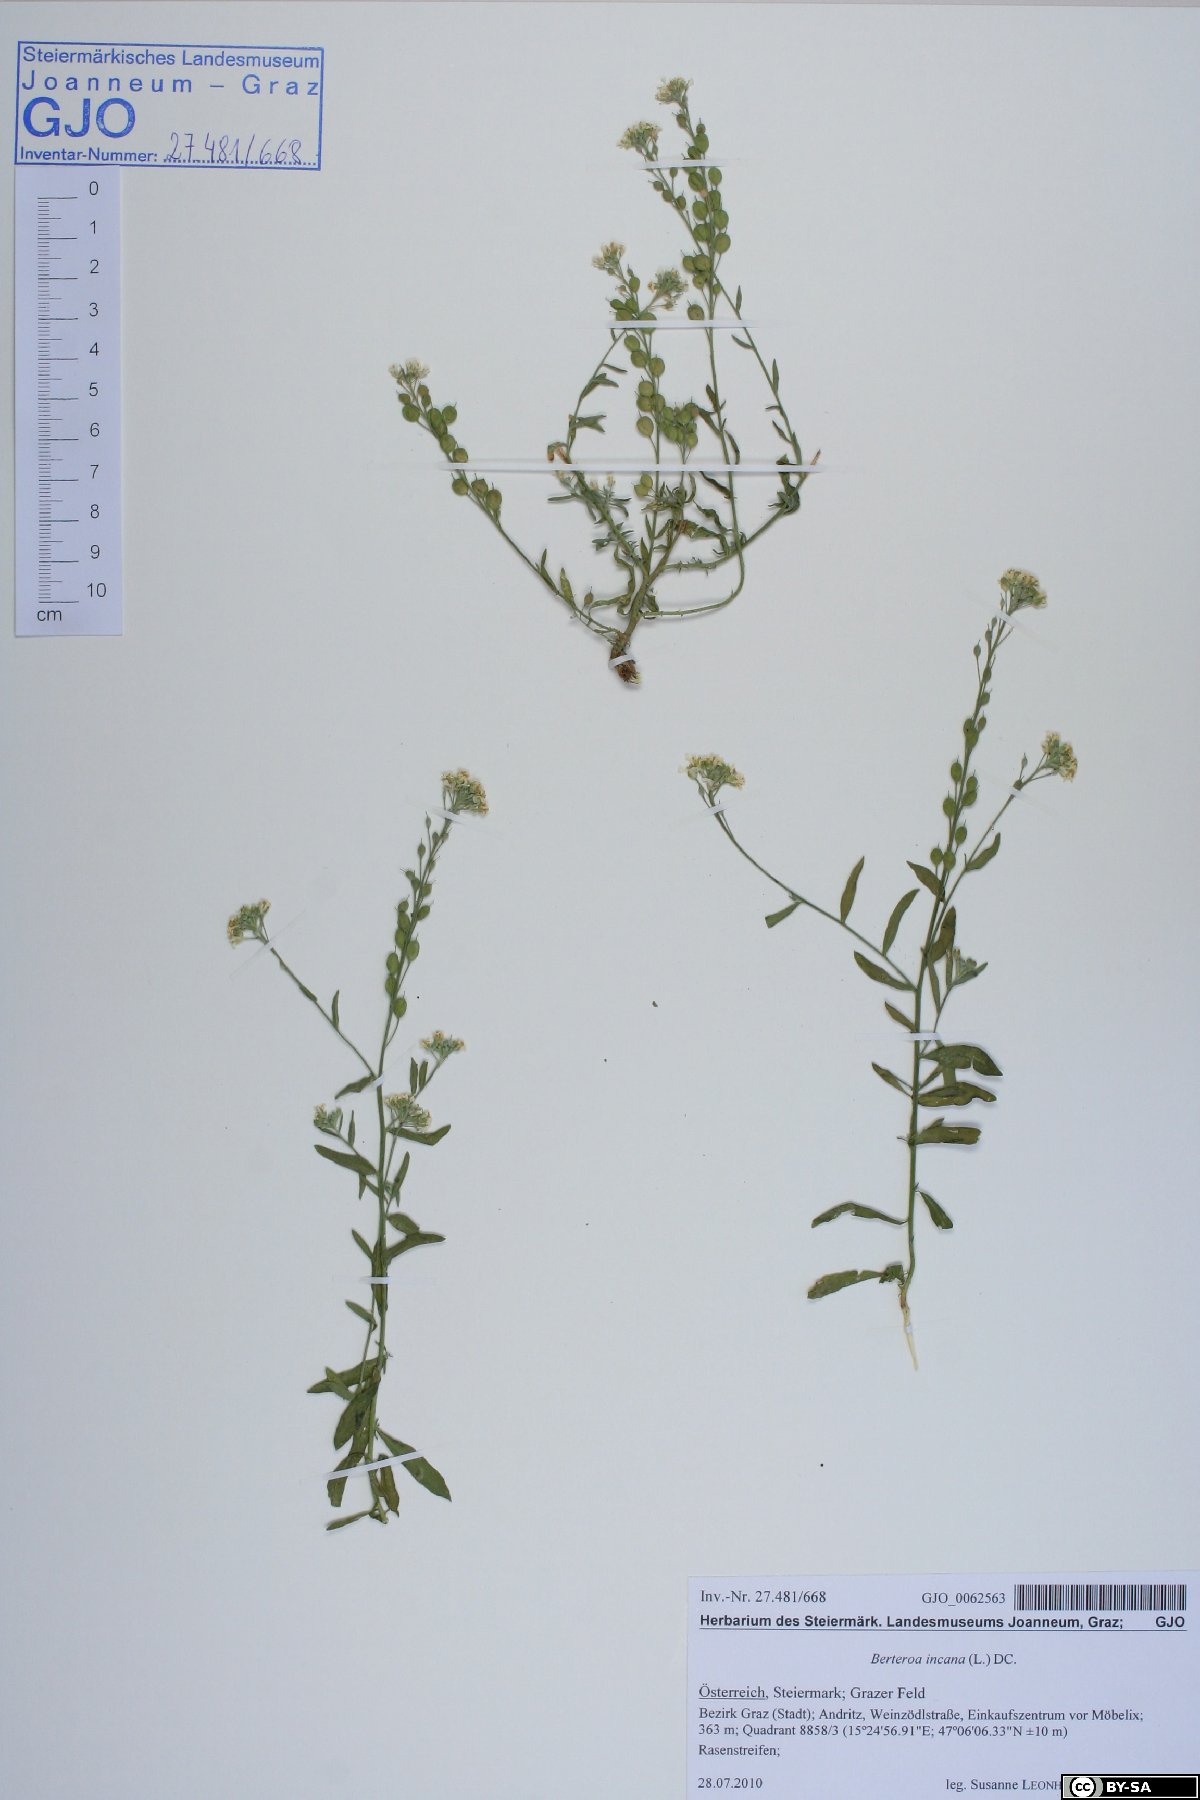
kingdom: Plantae
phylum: Tracheophyta
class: Magnoliopsida
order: Brassicales
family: Brassicaceae
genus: Berteroa
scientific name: Berteroa incana
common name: Hoary alison
